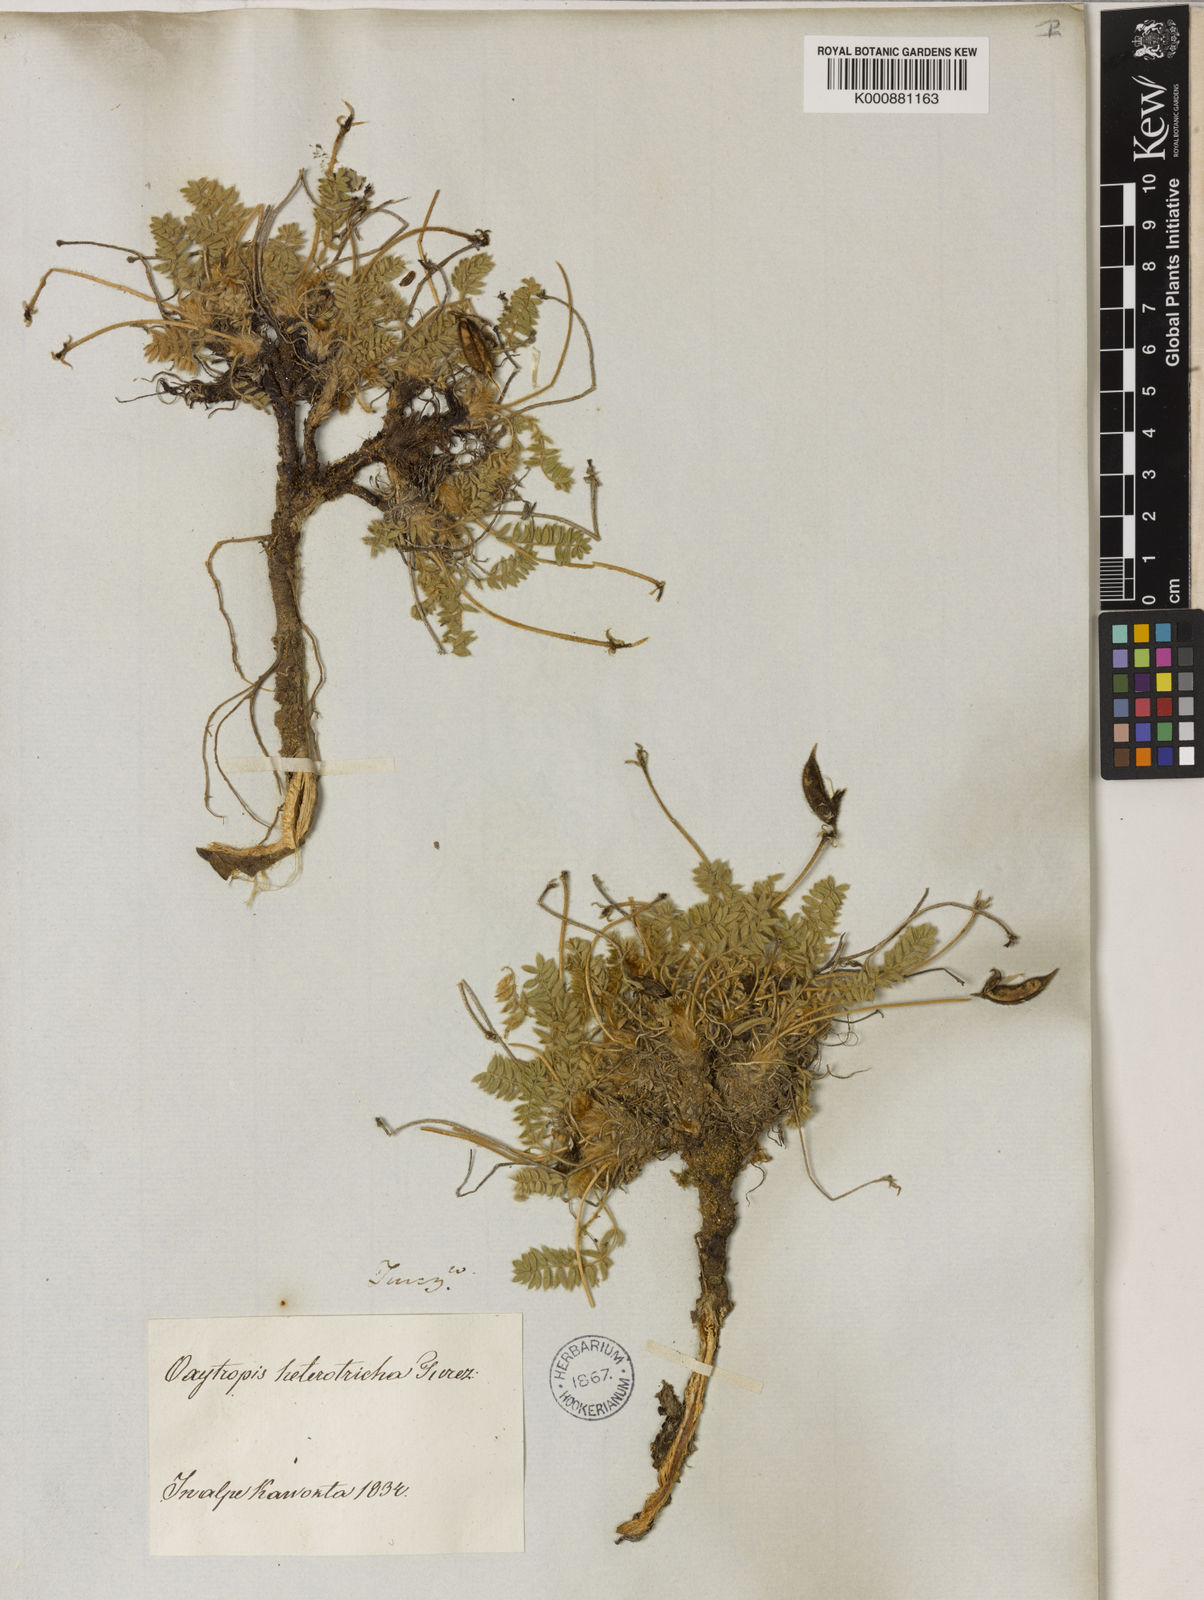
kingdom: Plantae
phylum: Tracheophyta
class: Magnoliopsida
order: Fabales
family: Fabaceae
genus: Oxytropis
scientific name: Oxytropis heterotricha
